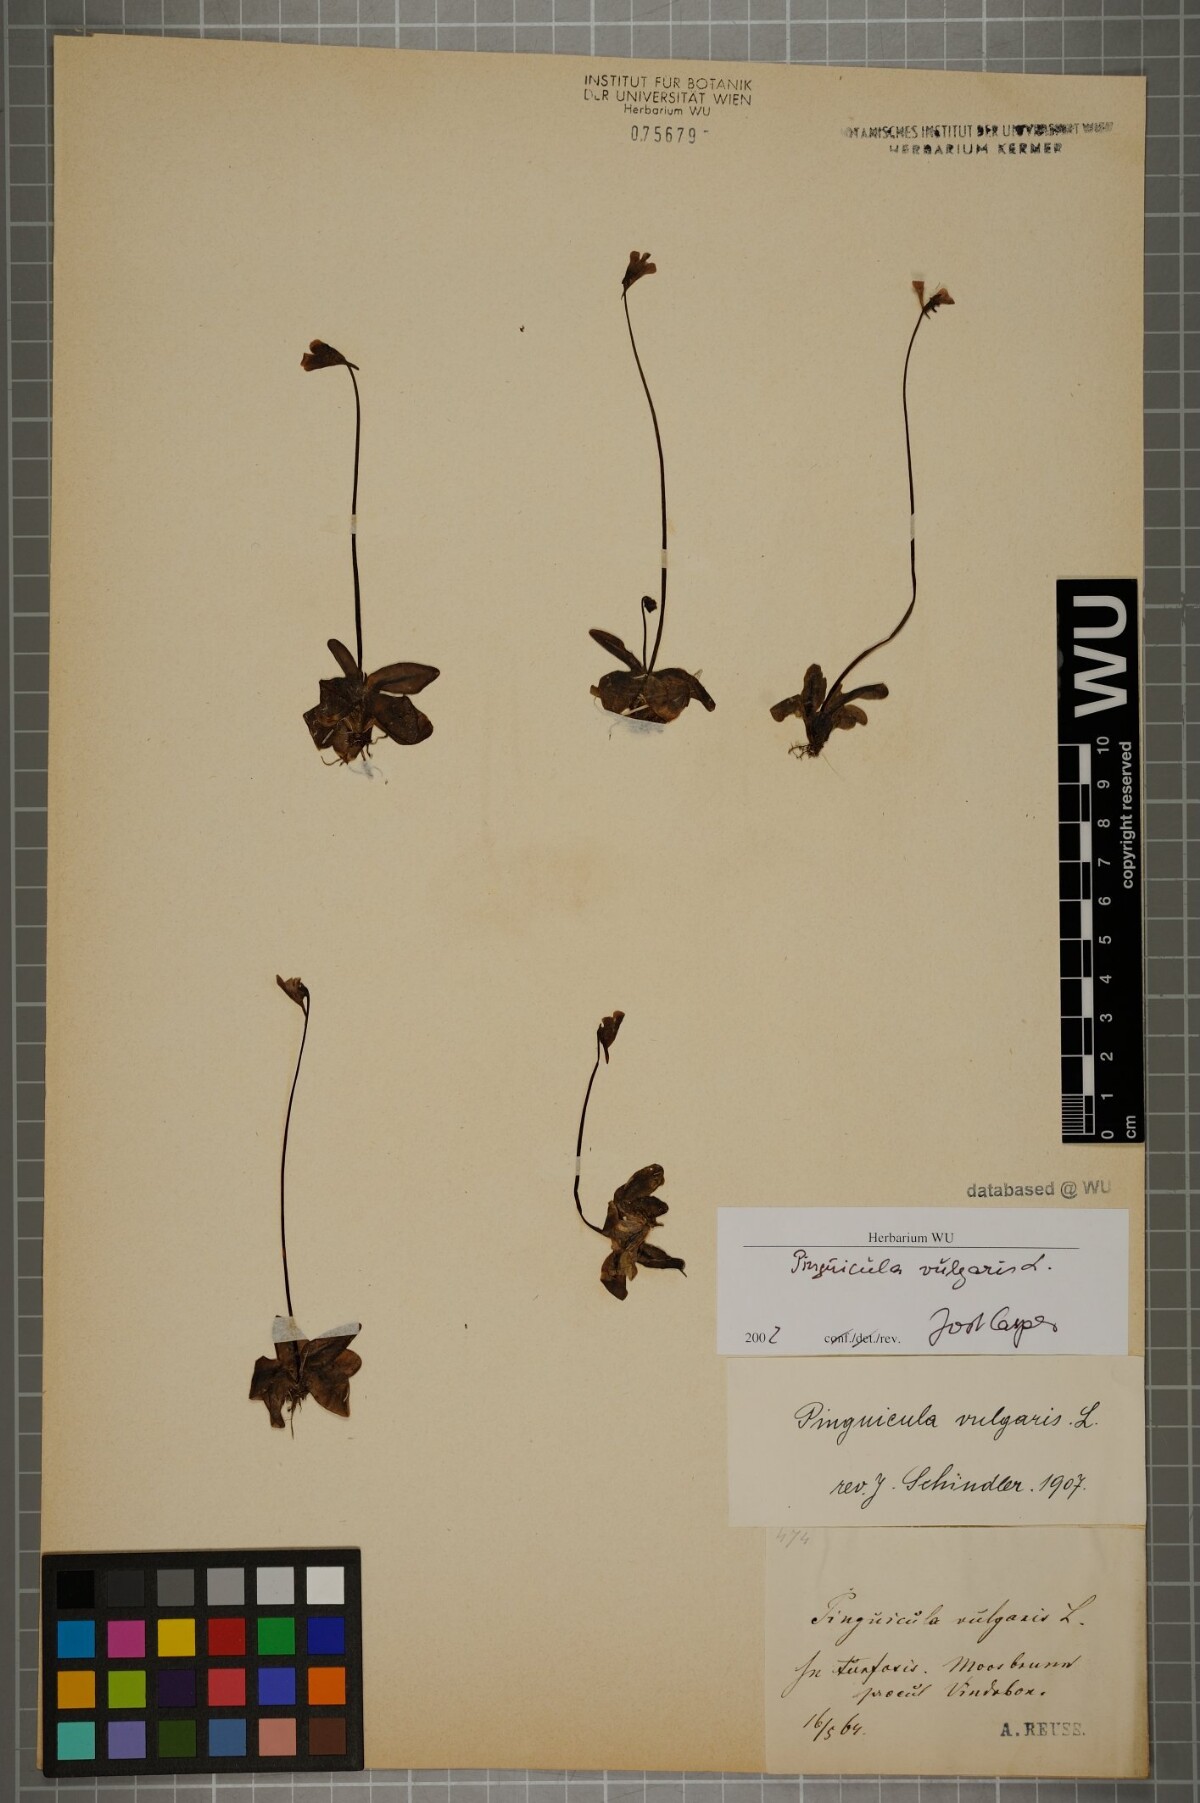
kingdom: Plantae
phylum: Tracheophyta
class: Magnoliopsida
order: Lamiales
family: Lentibulariaceae
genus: Pinguicula
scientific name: Pinguicula vulgaris
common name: Common butterwort
